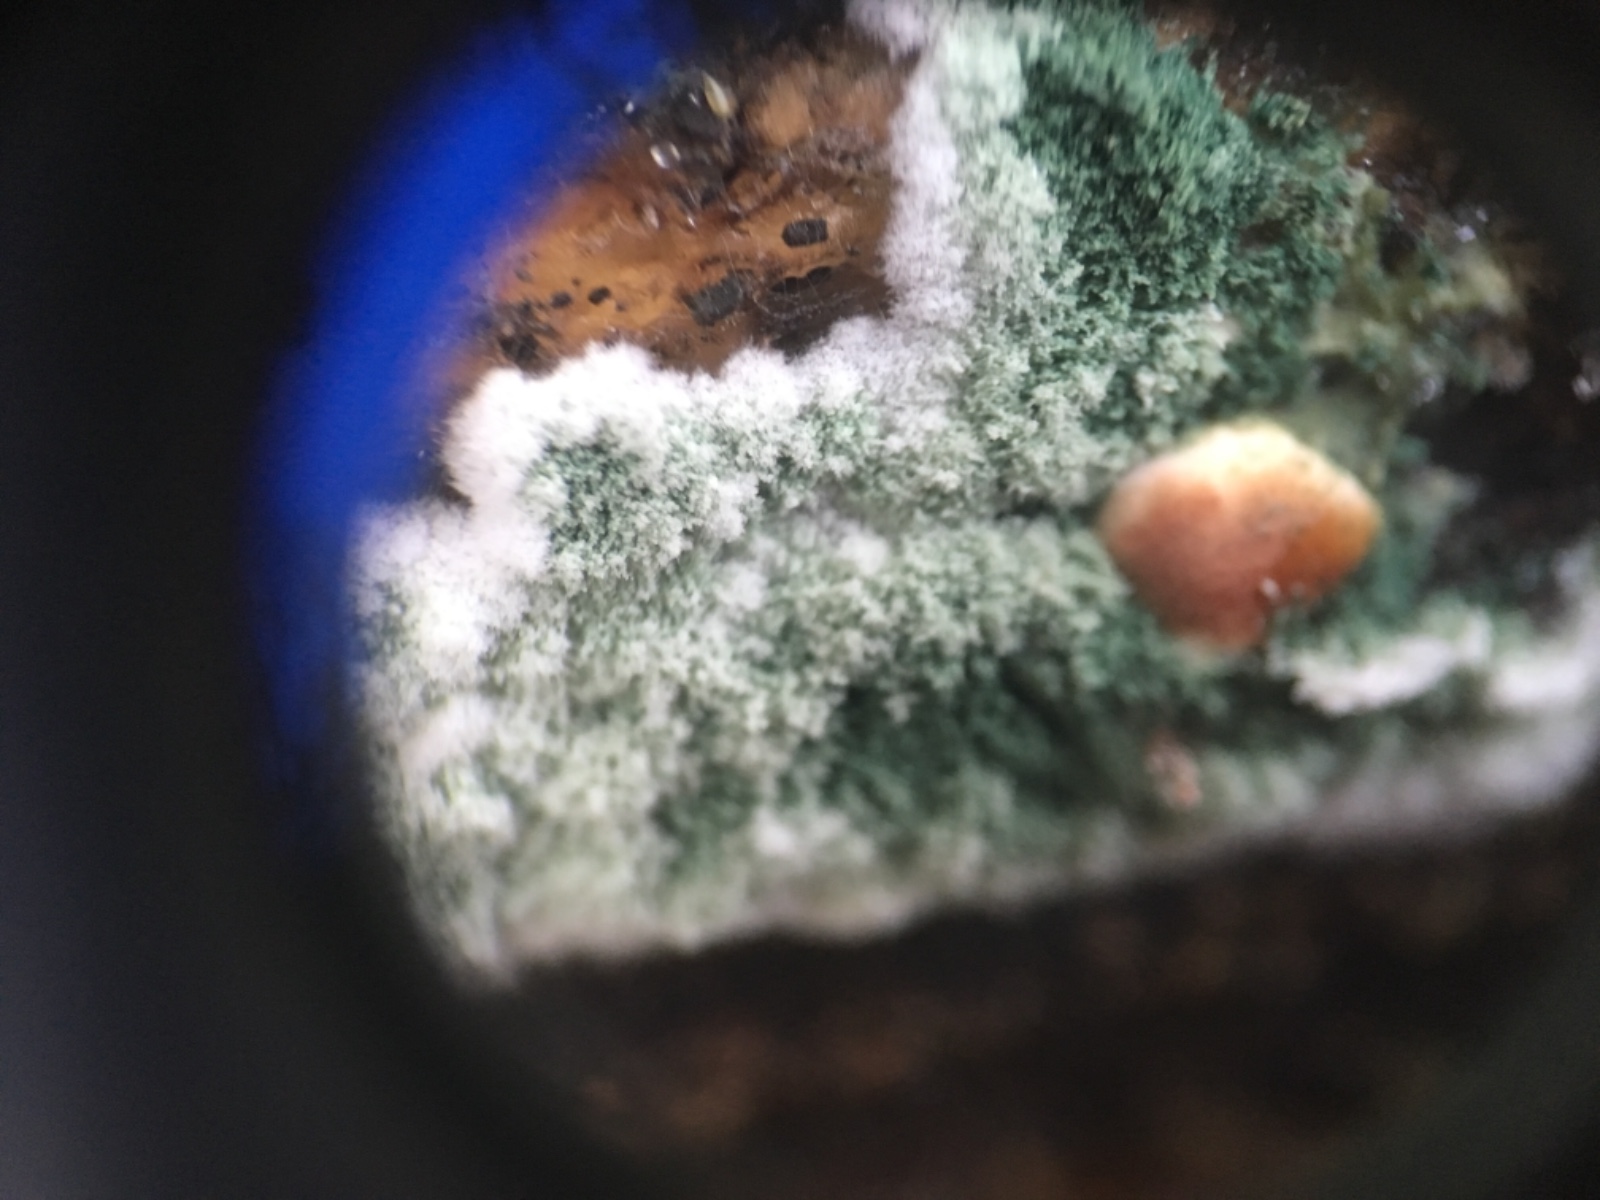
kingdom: Fungi
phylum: Ascomycota
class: Sordariomycetes
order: Hypocreales
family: Hypocreaceae
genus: Trichoderma
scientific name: Trichoderma
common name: kødkerne
